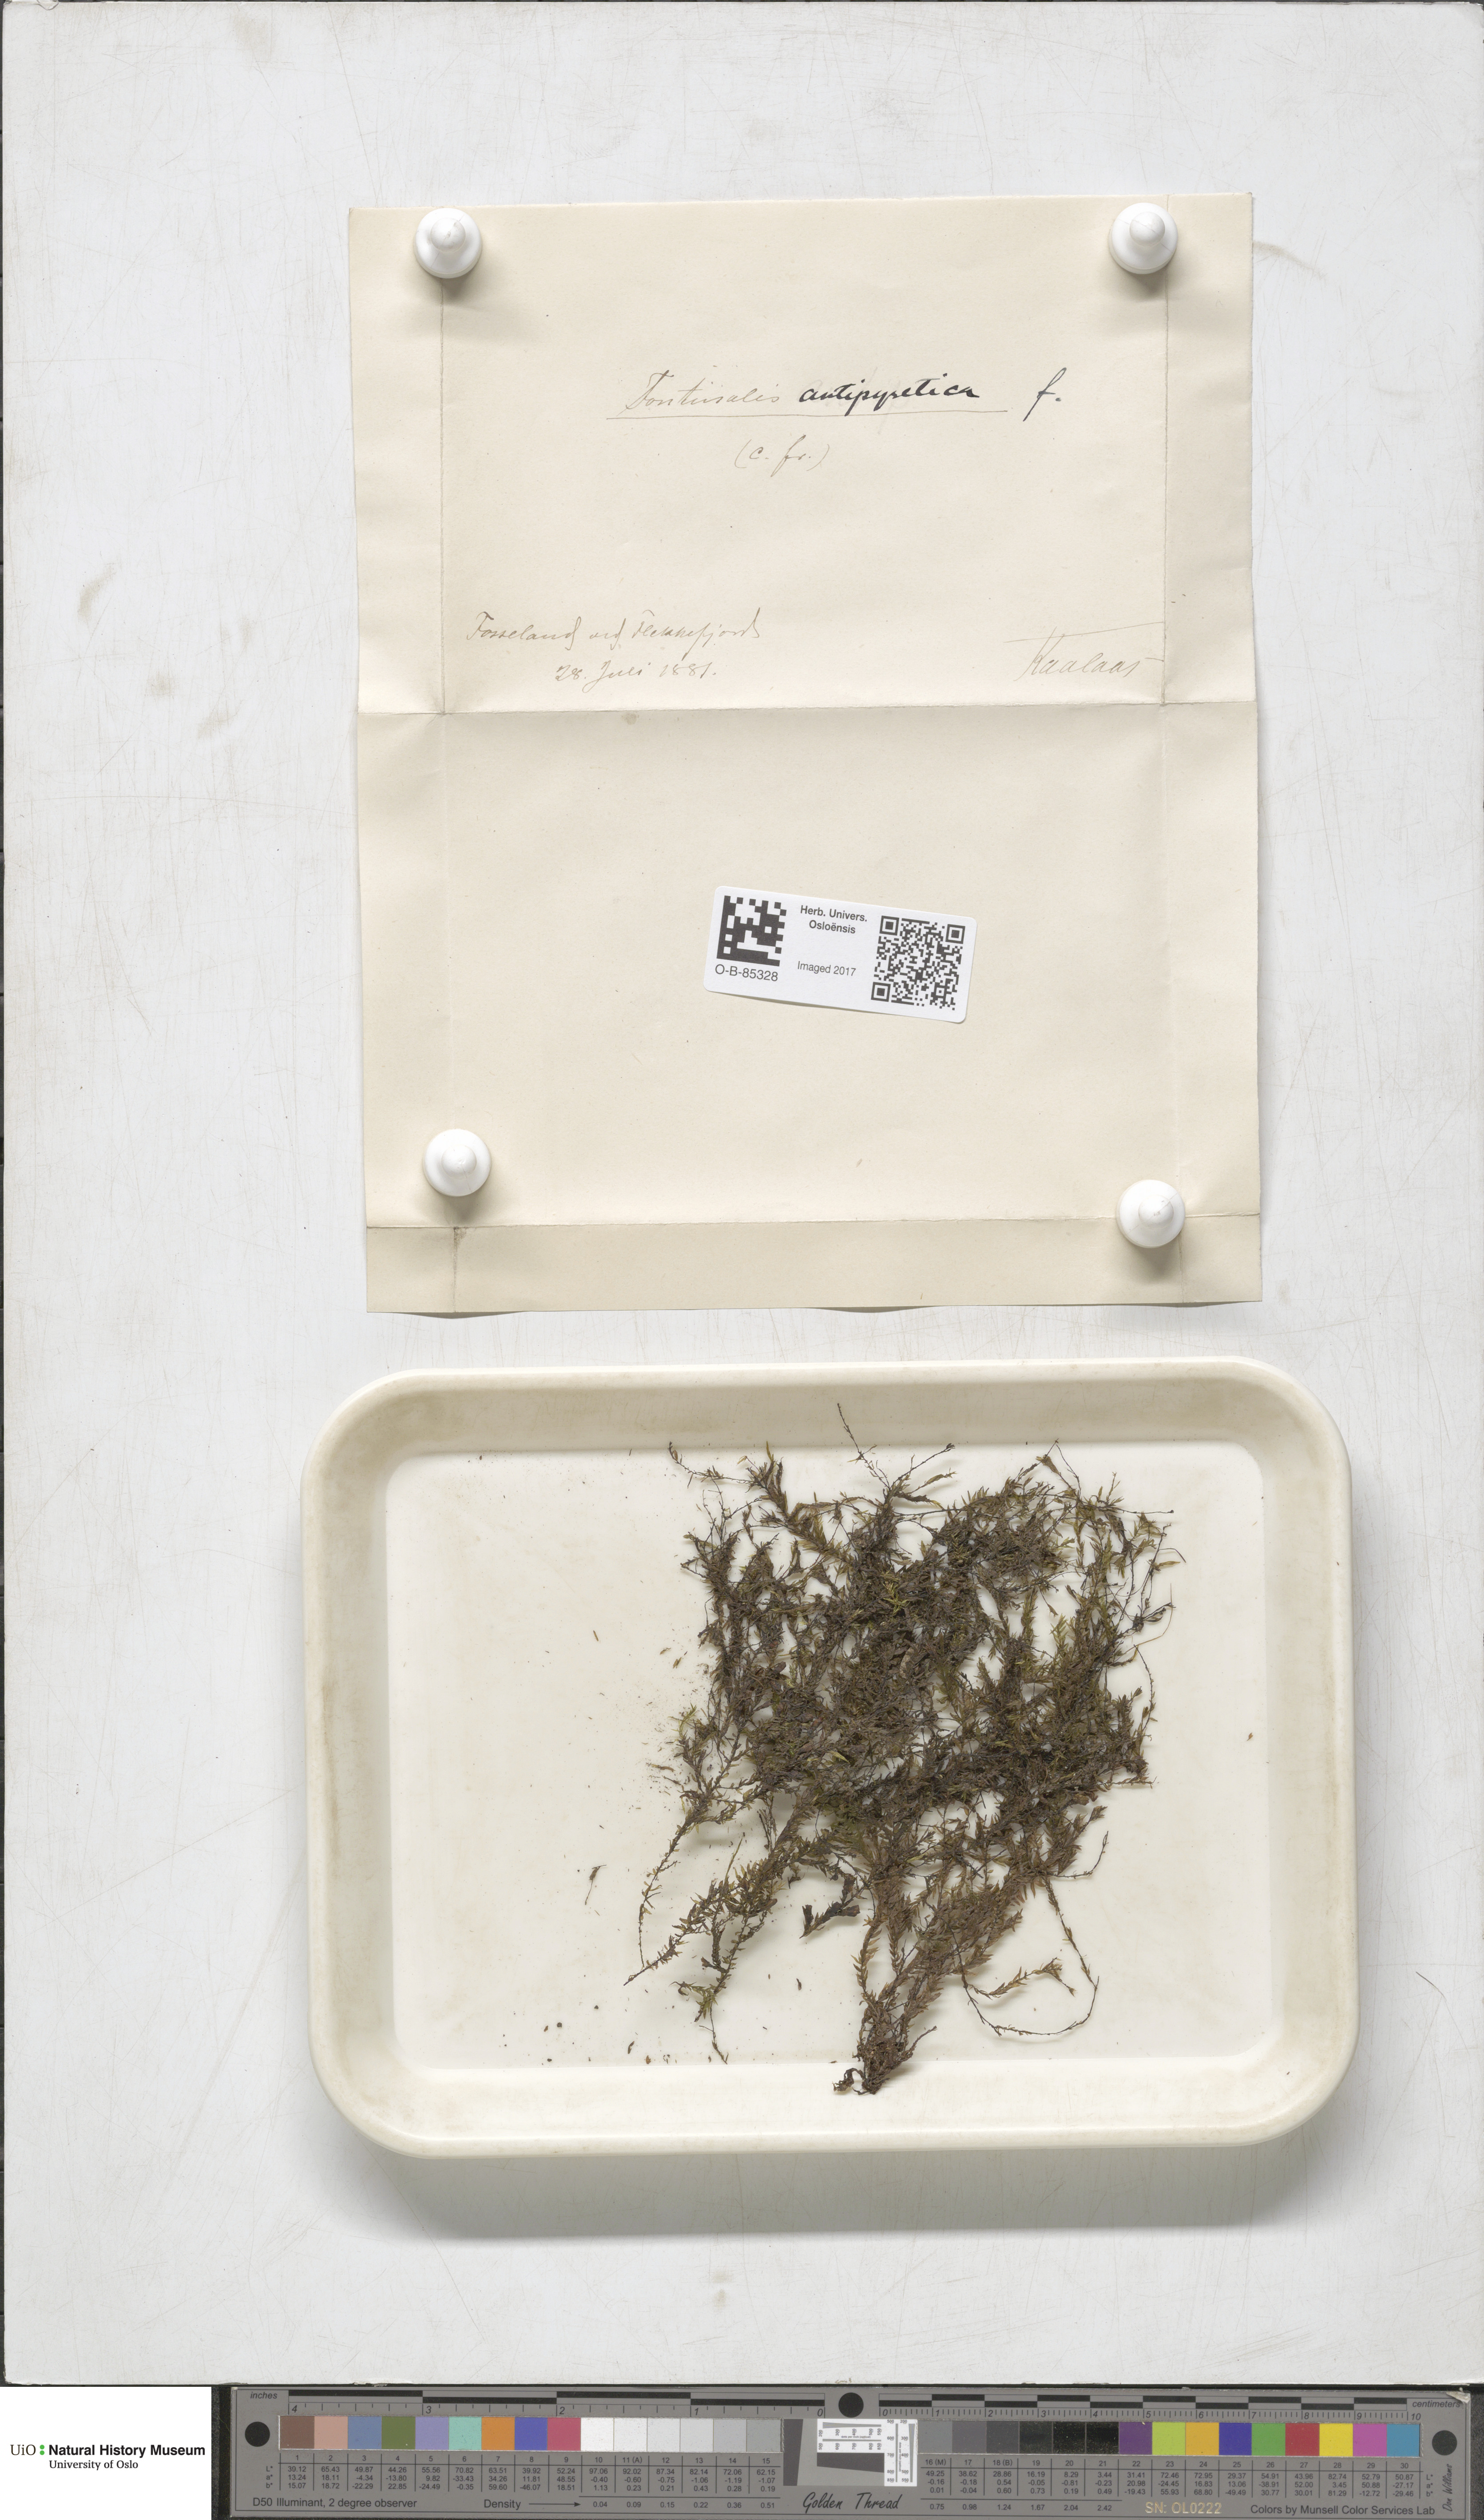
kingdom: Plantae
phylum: Bryophyta
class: Bryopsida
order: Hypnales
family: Fontinalaceae
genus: Fontinalis
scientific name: Fontinalis antipyretica
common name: Greater water-moss
